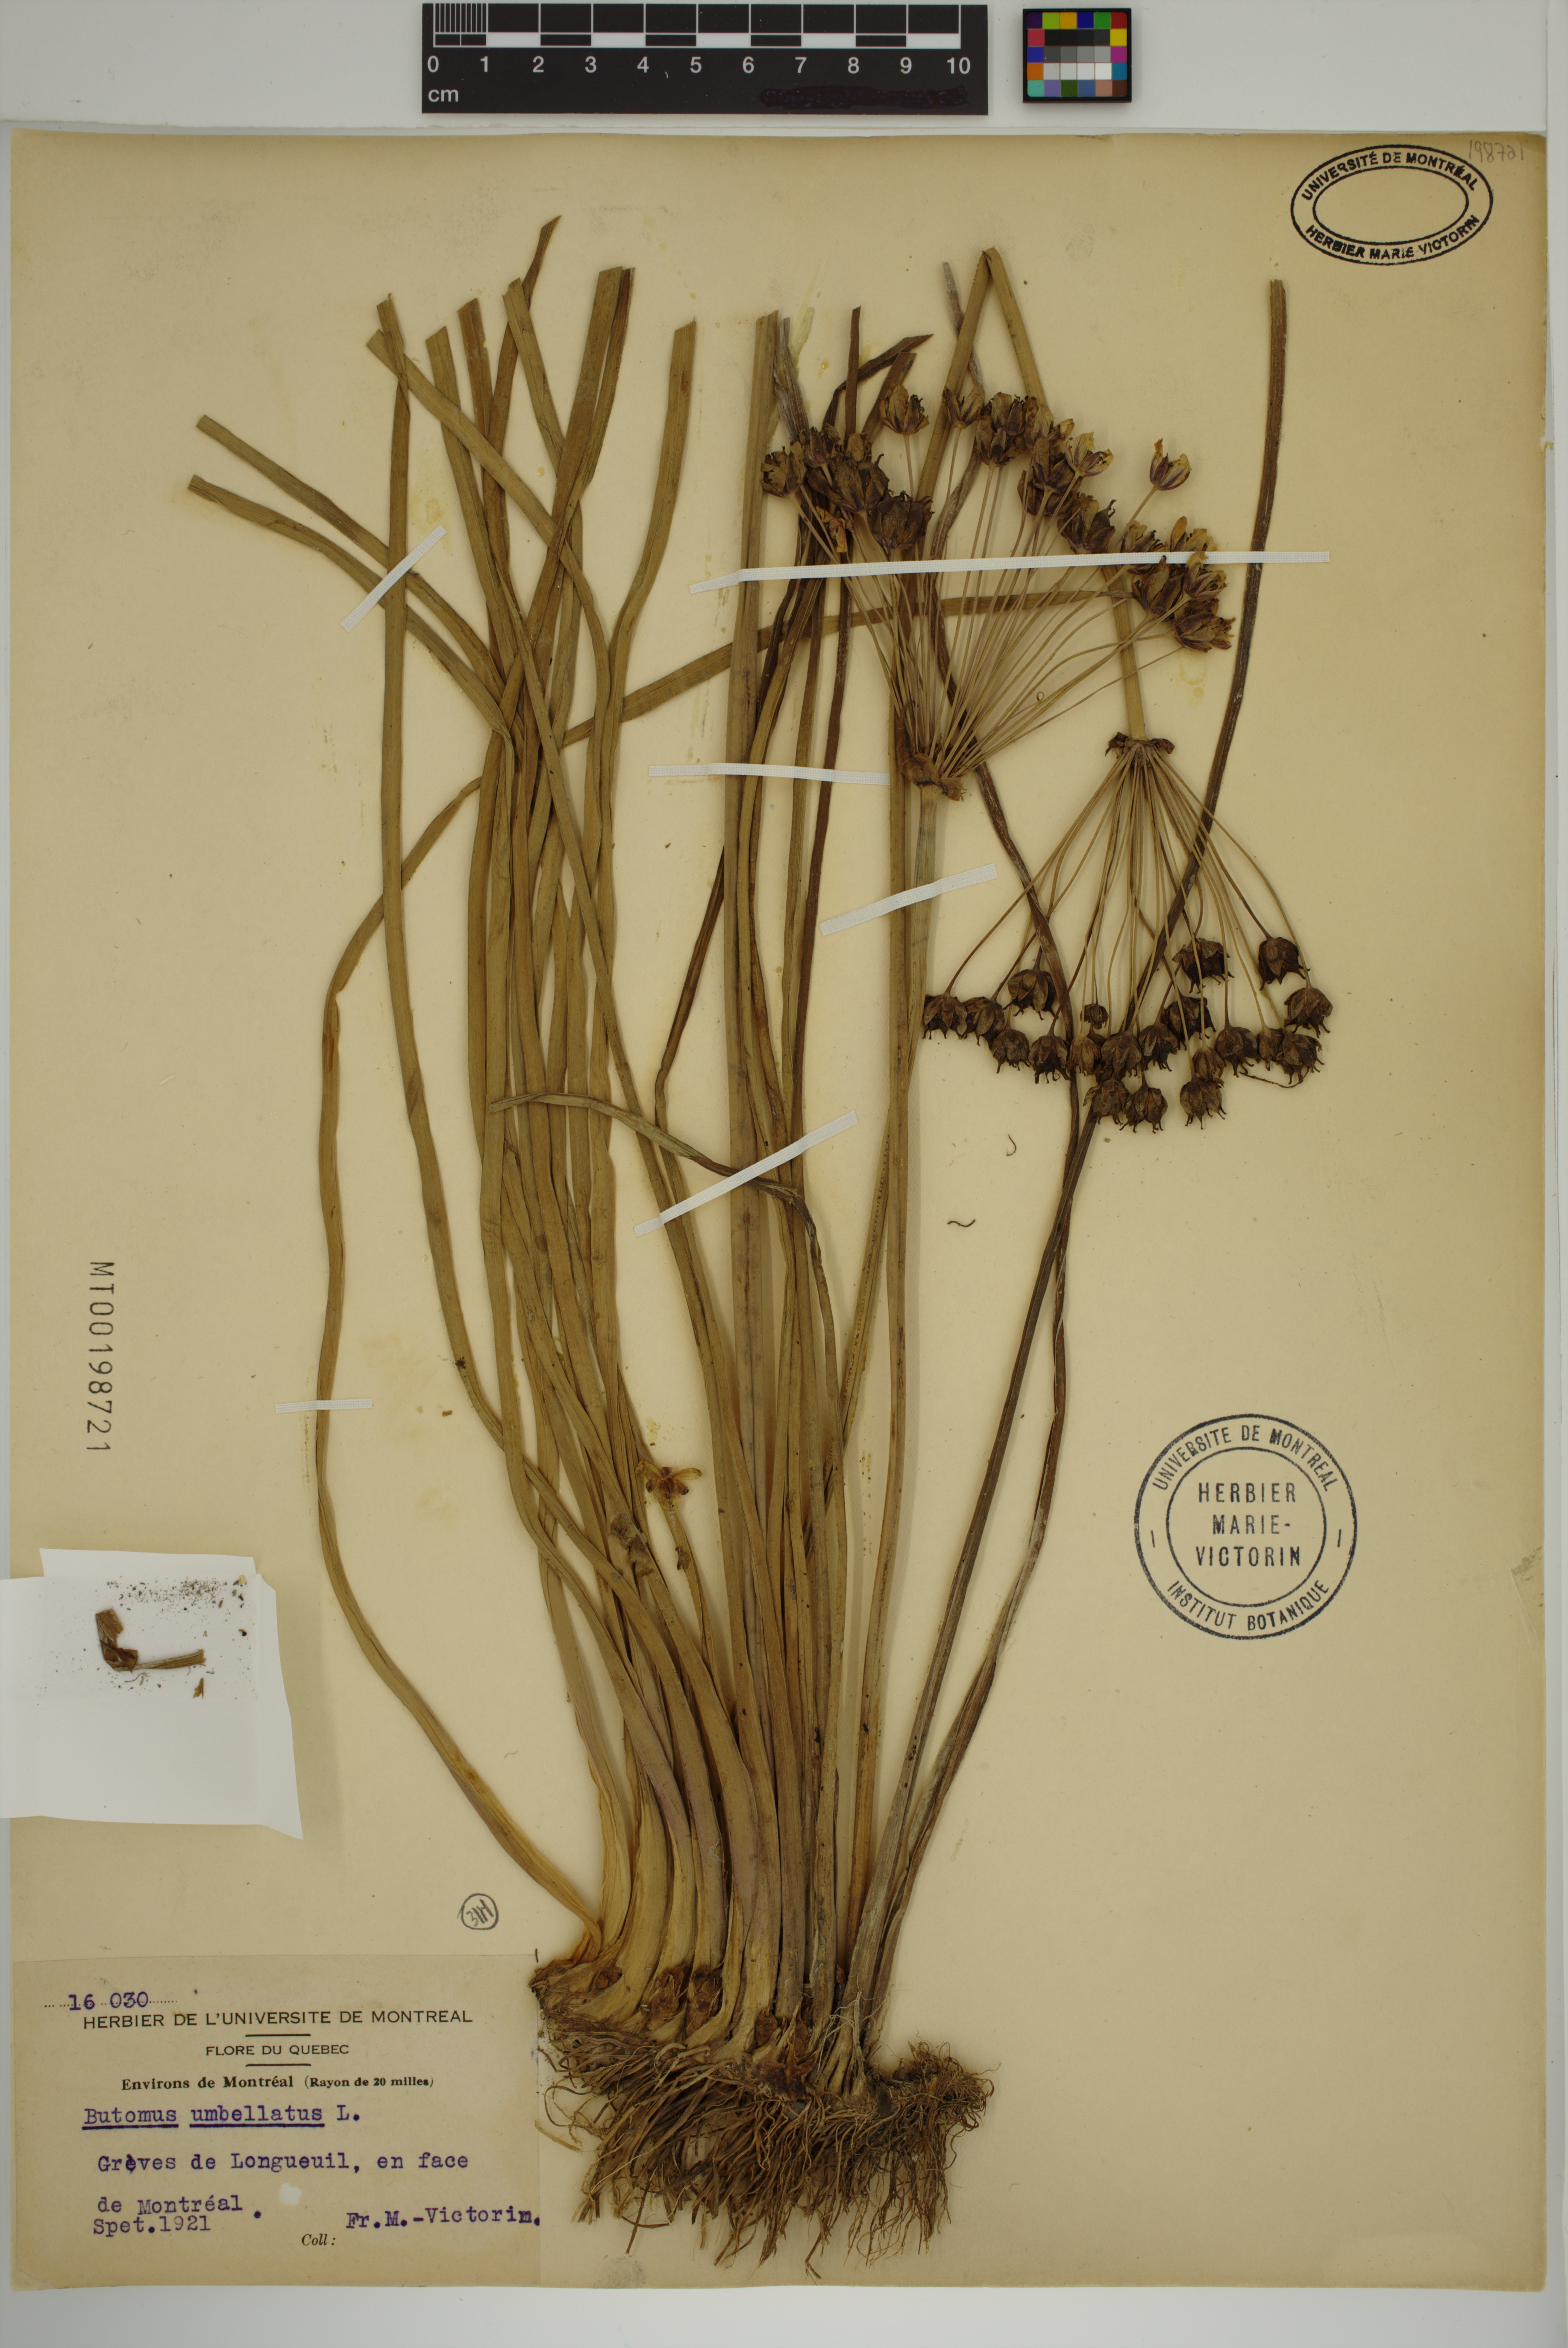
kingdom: Plantae
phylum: Tracheophyta
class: Liliopsida
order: Alismatales
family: Butomaceae
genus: Butomus
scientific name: Butomus umbellatus
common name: Flowering-rush
